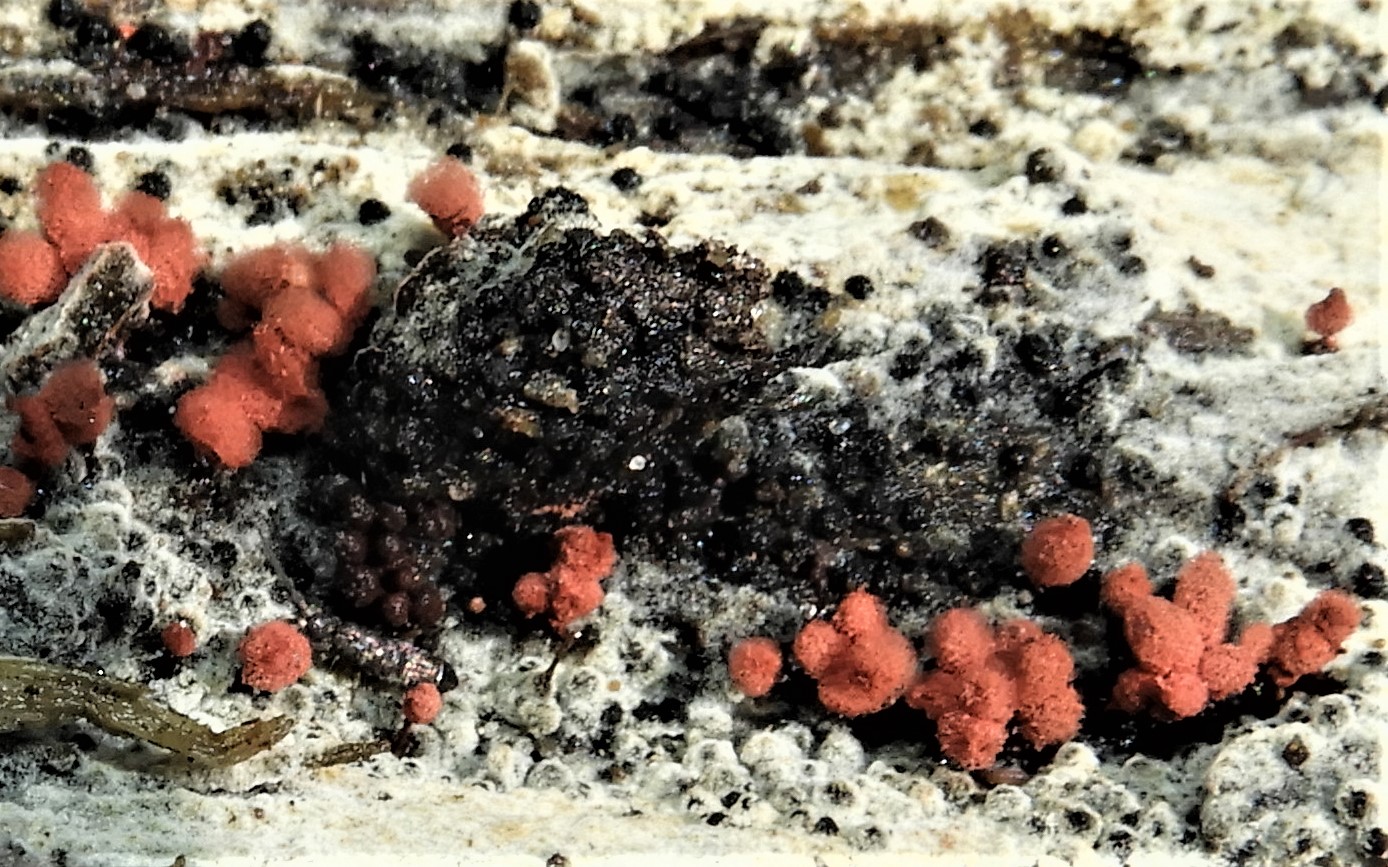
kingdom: Protozoa
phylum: Amoebozoa
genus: Arcyria
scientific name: Arcyria
